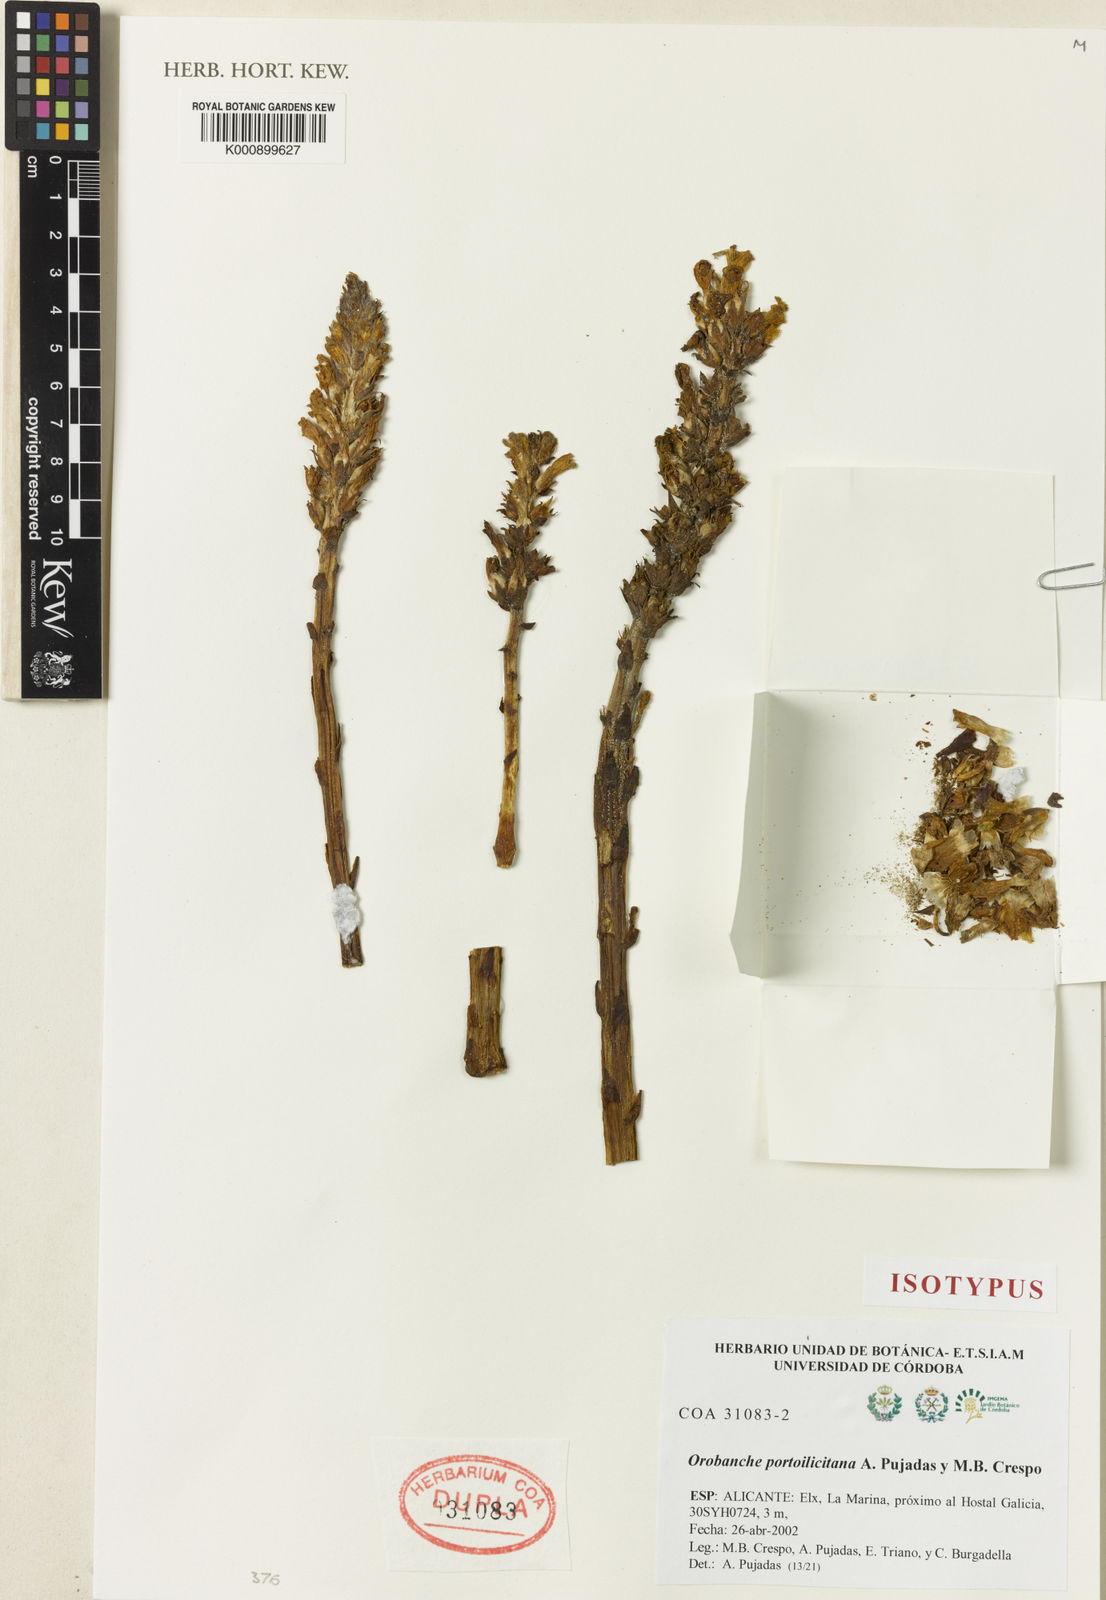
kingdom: Plantae
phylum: Tracheophyta
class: Magnoliopsida
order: Lamiales
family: Orobanchaceae
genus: Phelipanche
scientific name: Phelipanche portoilicitana
